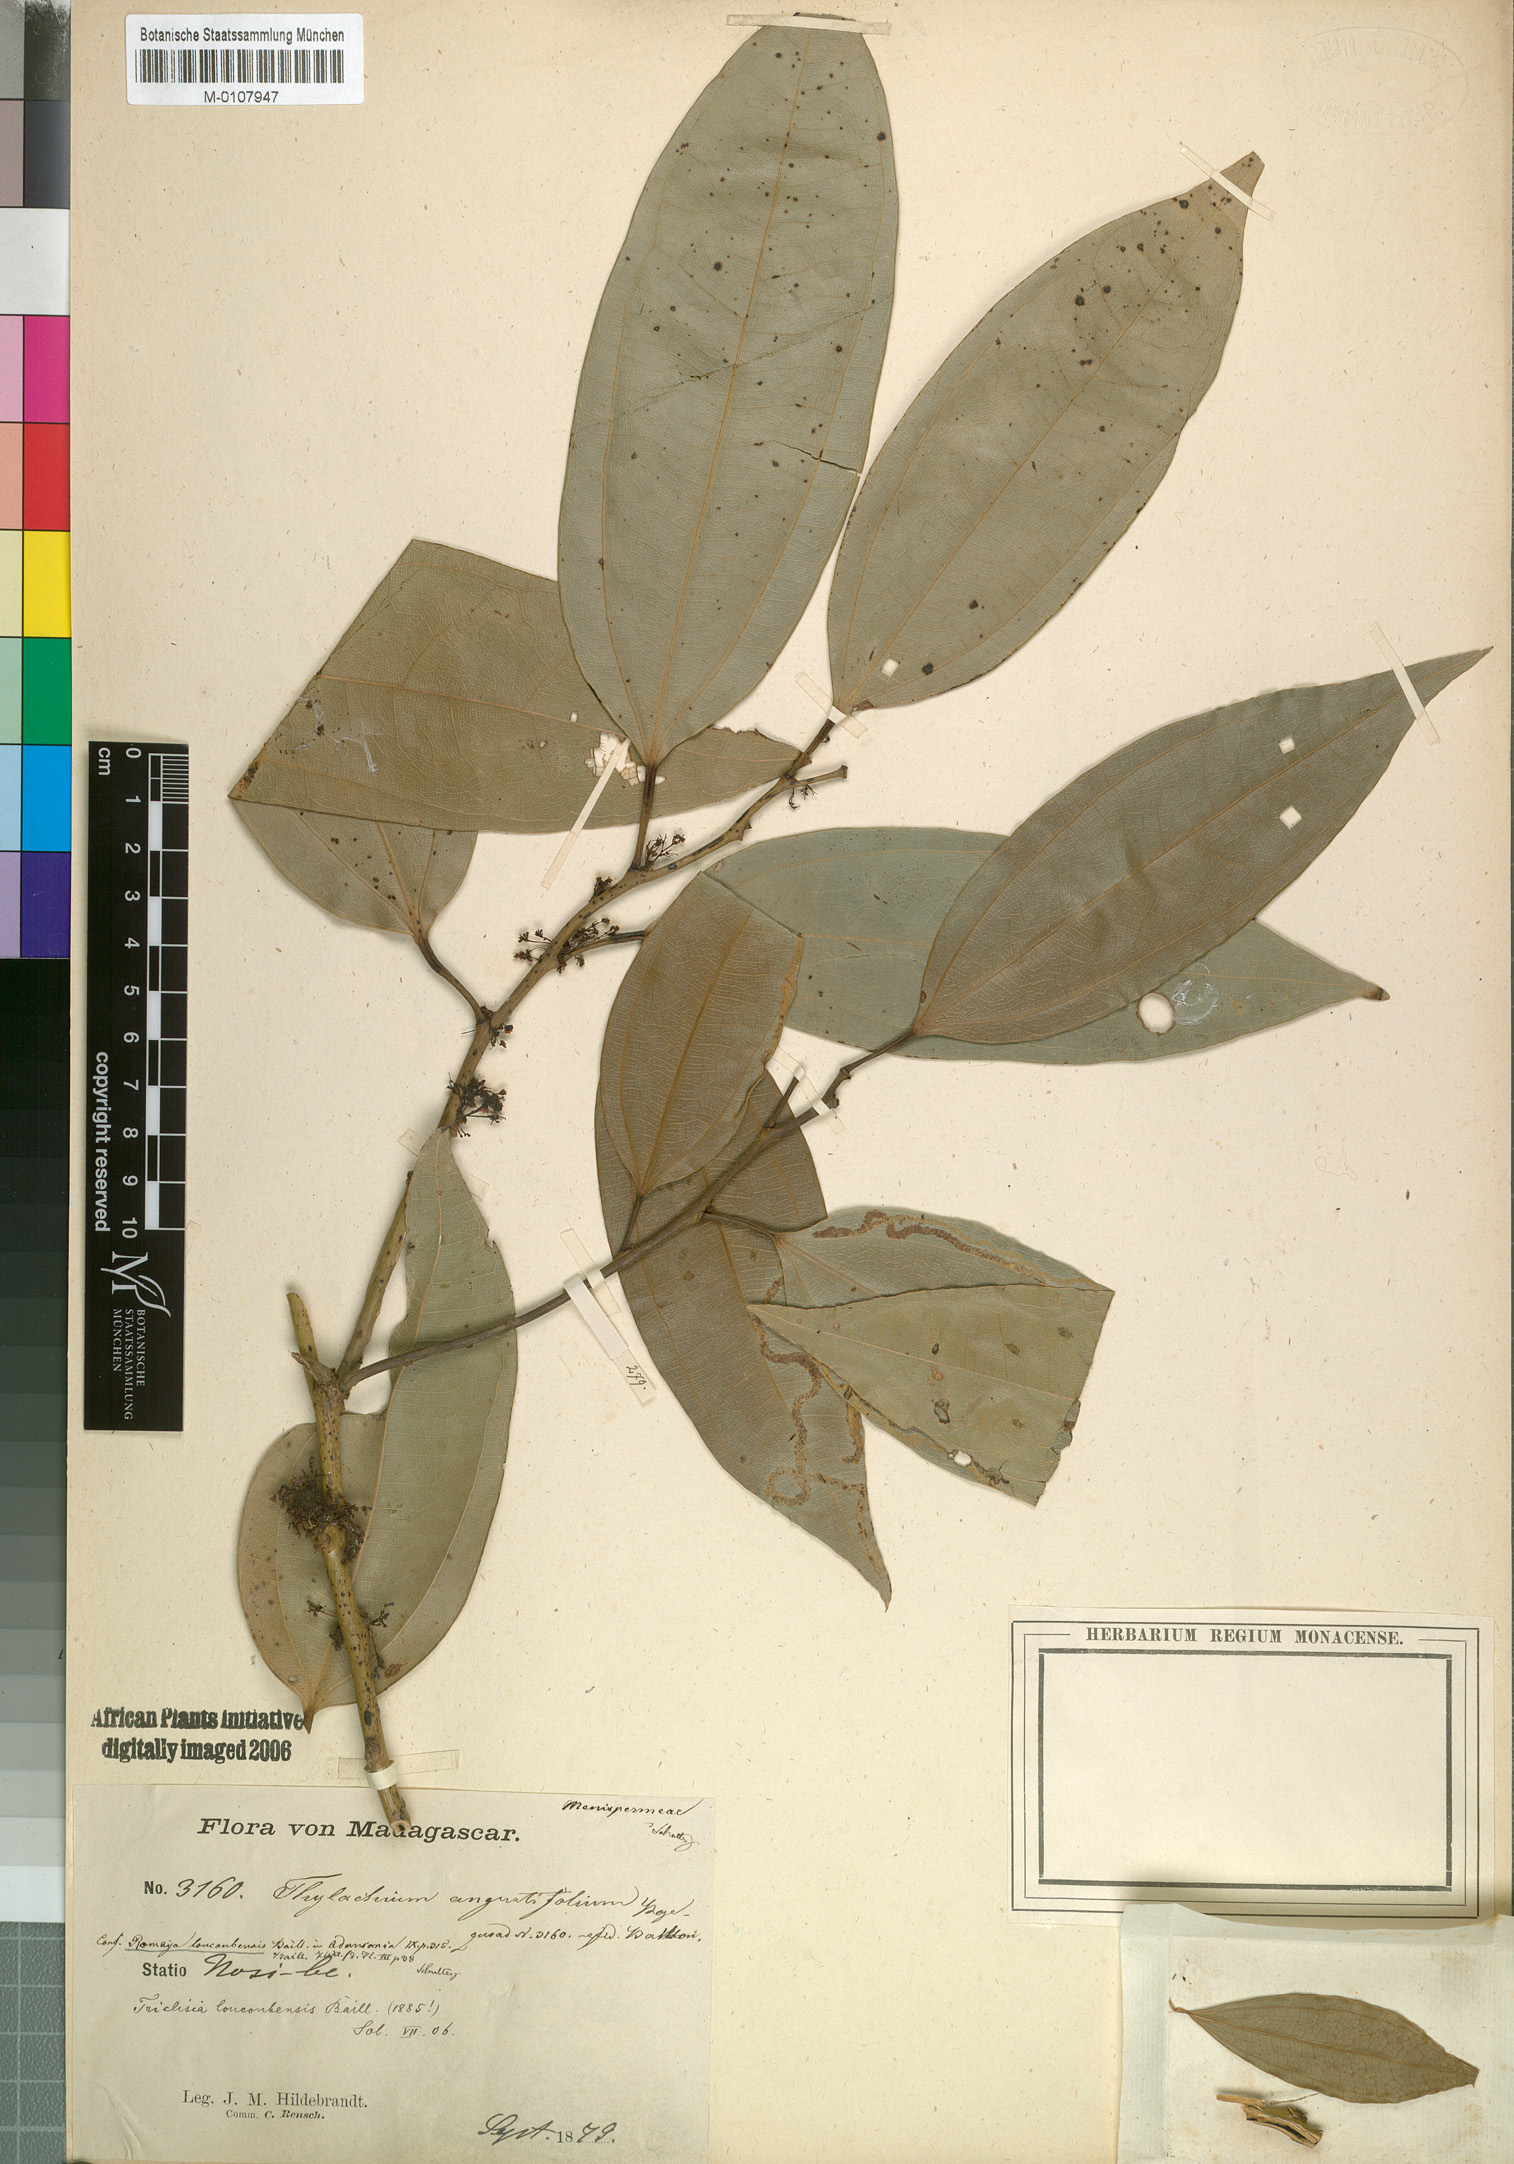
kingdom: Plantae
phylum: Tracheophyta
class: Magnoliopsida
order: Ranunculales
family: Menispermaceae
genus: Triclisia
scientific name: Triclisia loucoubensis
